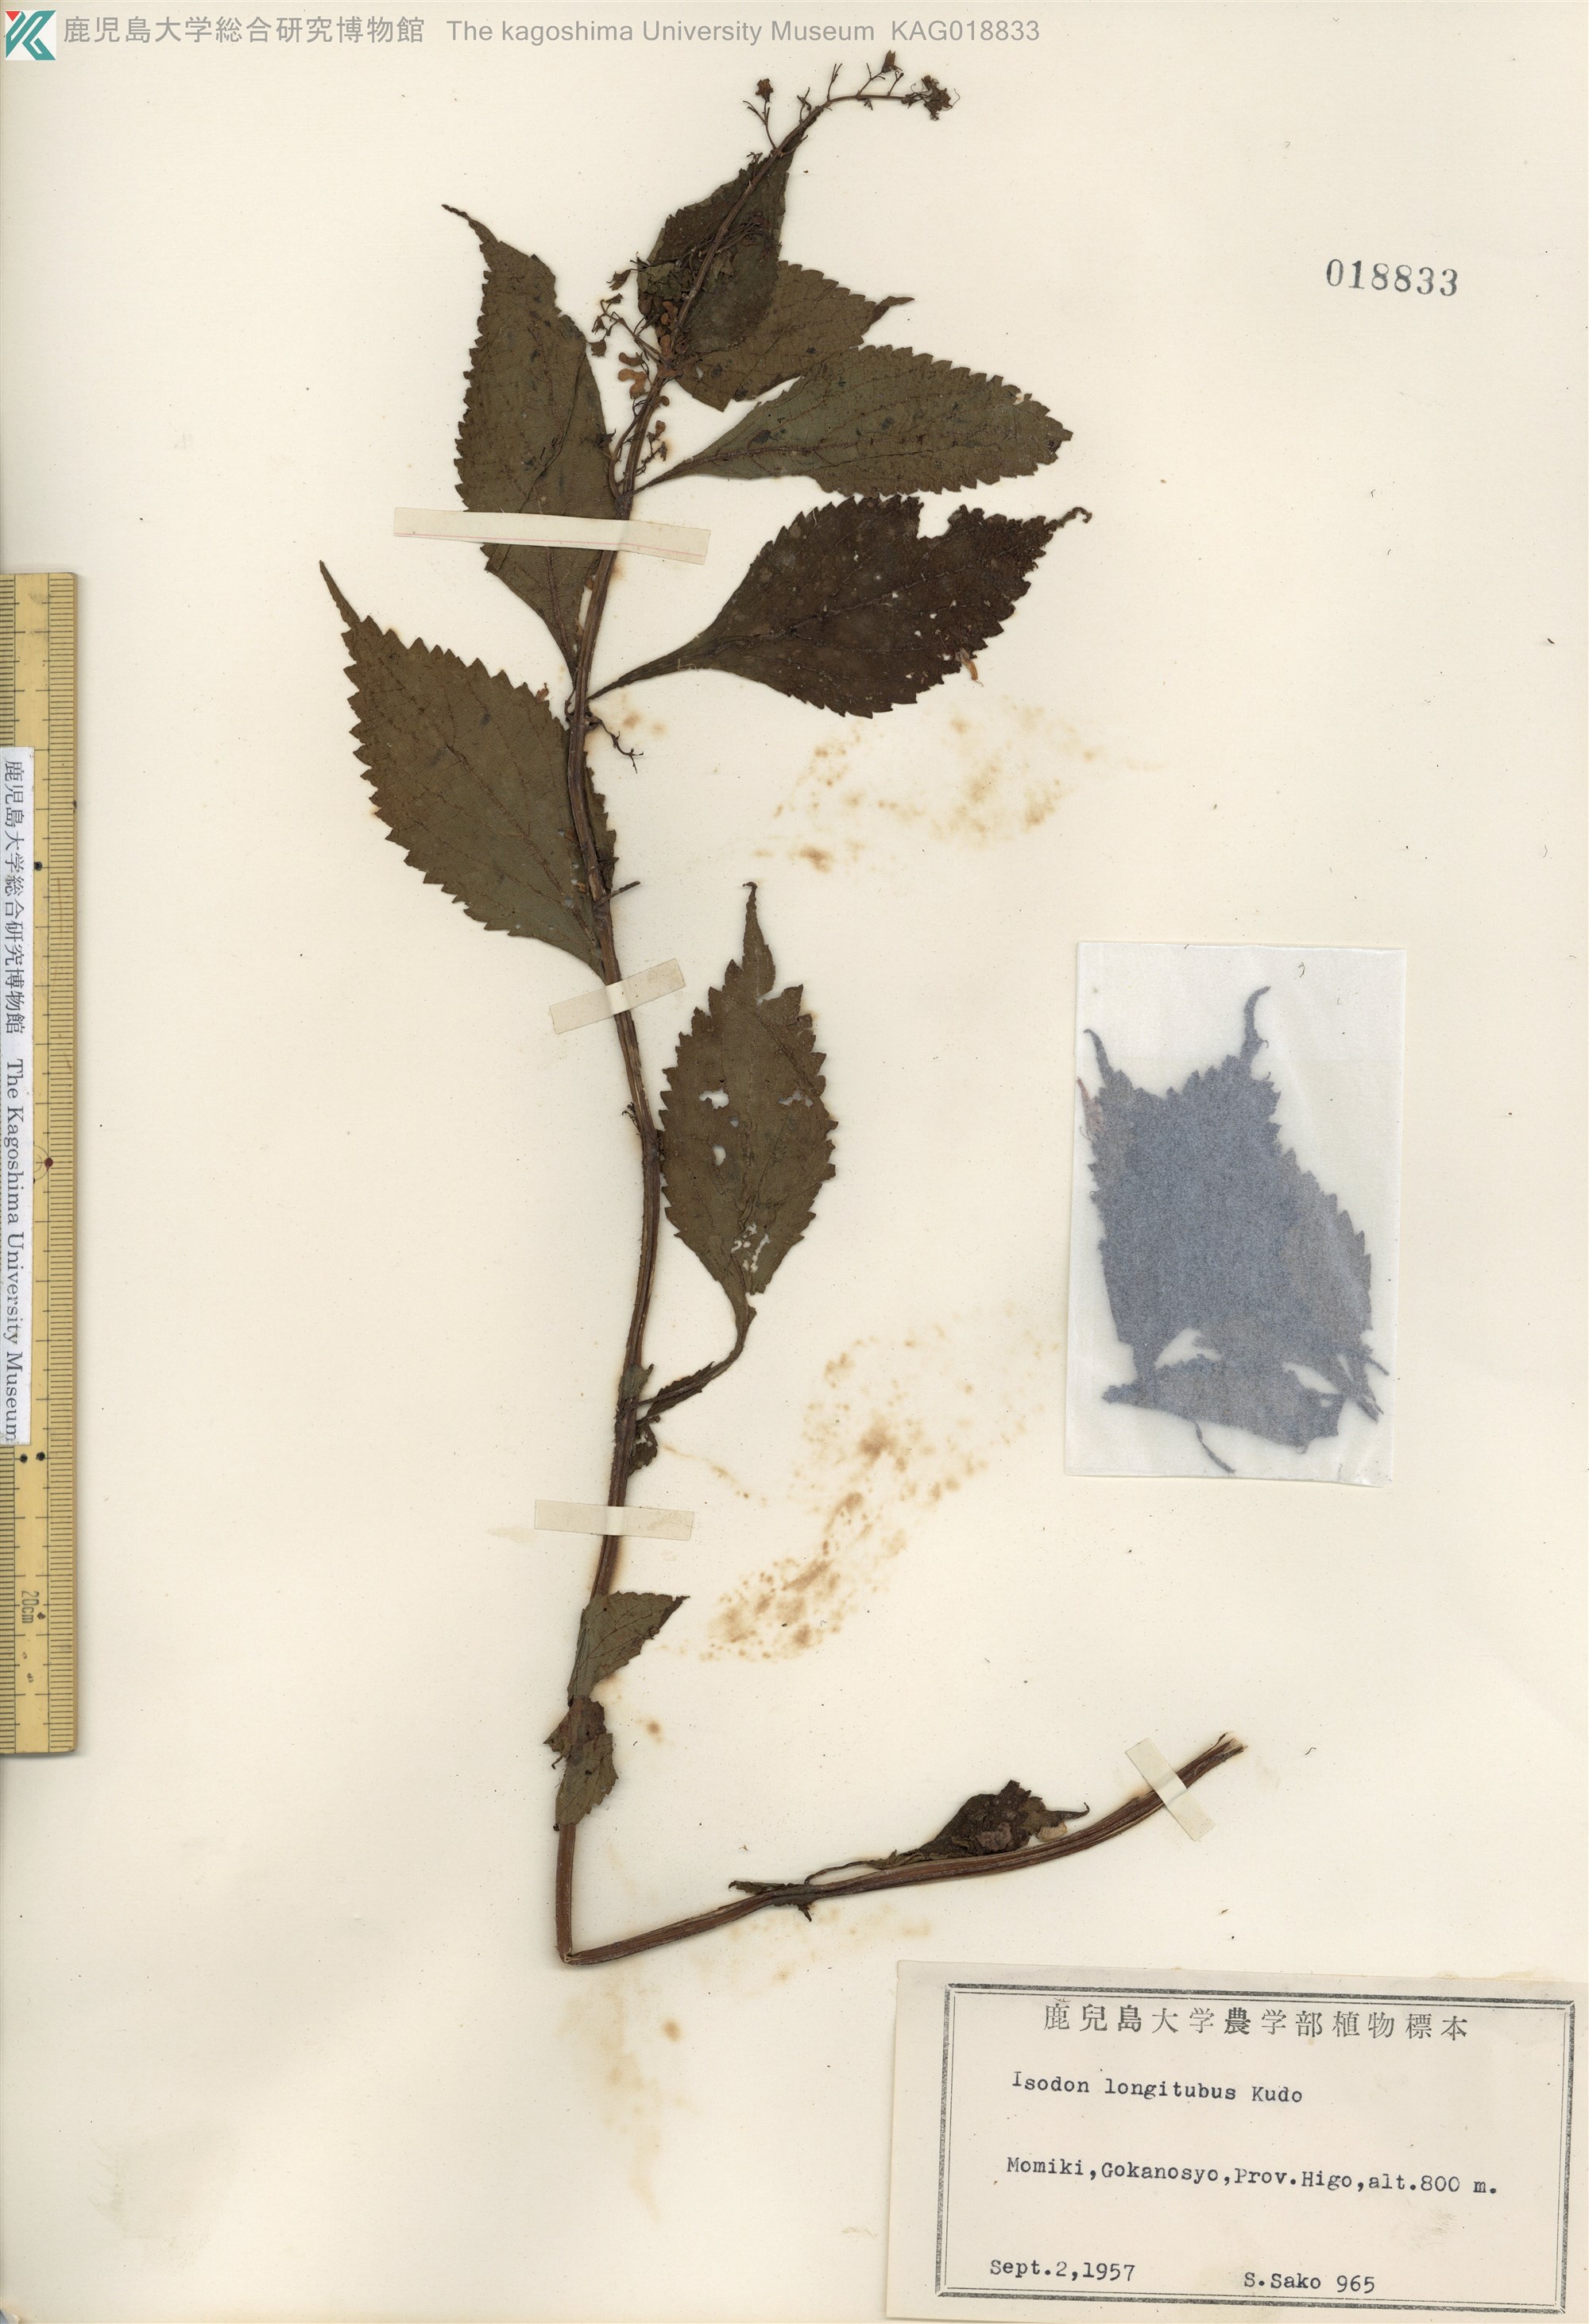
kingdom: Plantae
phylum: Tracheophyta
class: Magnoliopsida
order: Lamiales
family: Lamiaceae
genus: Isodon
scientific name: Isodon longitubus
